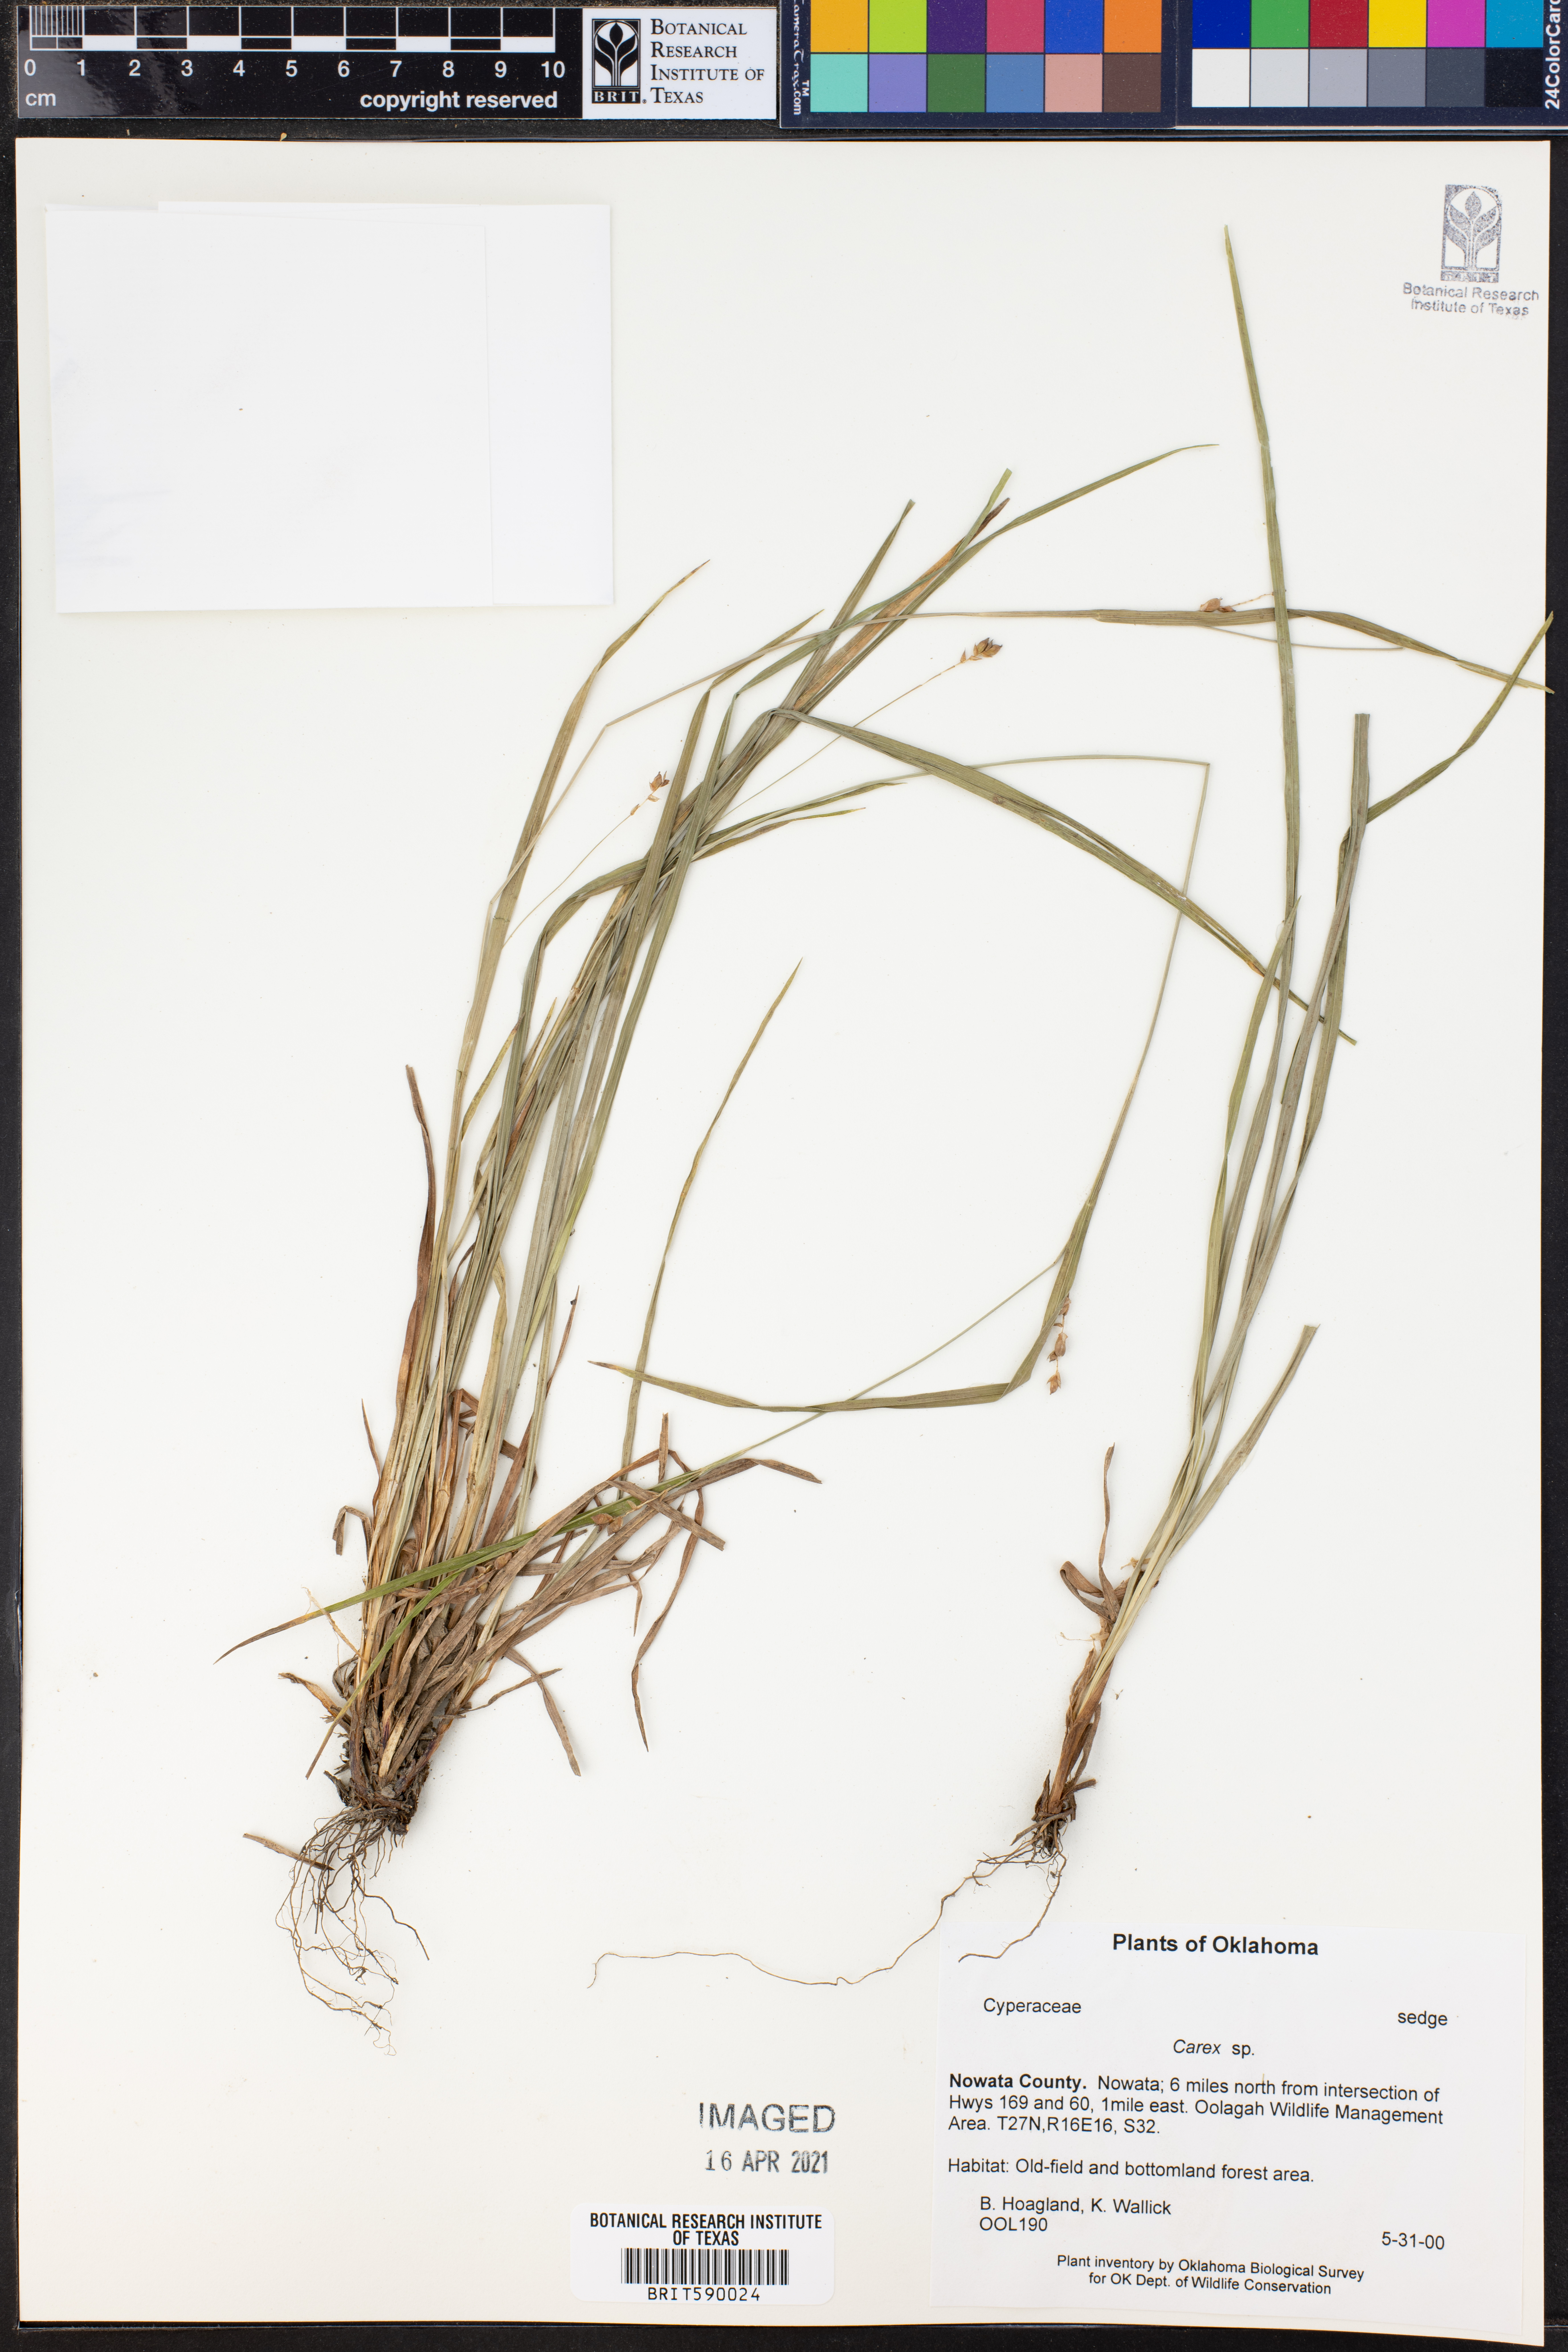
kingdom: Plantae
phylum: Tracheophyta
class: Liliopsida
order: Poales
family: Cyperaceae
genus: Carex
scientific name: Carex
